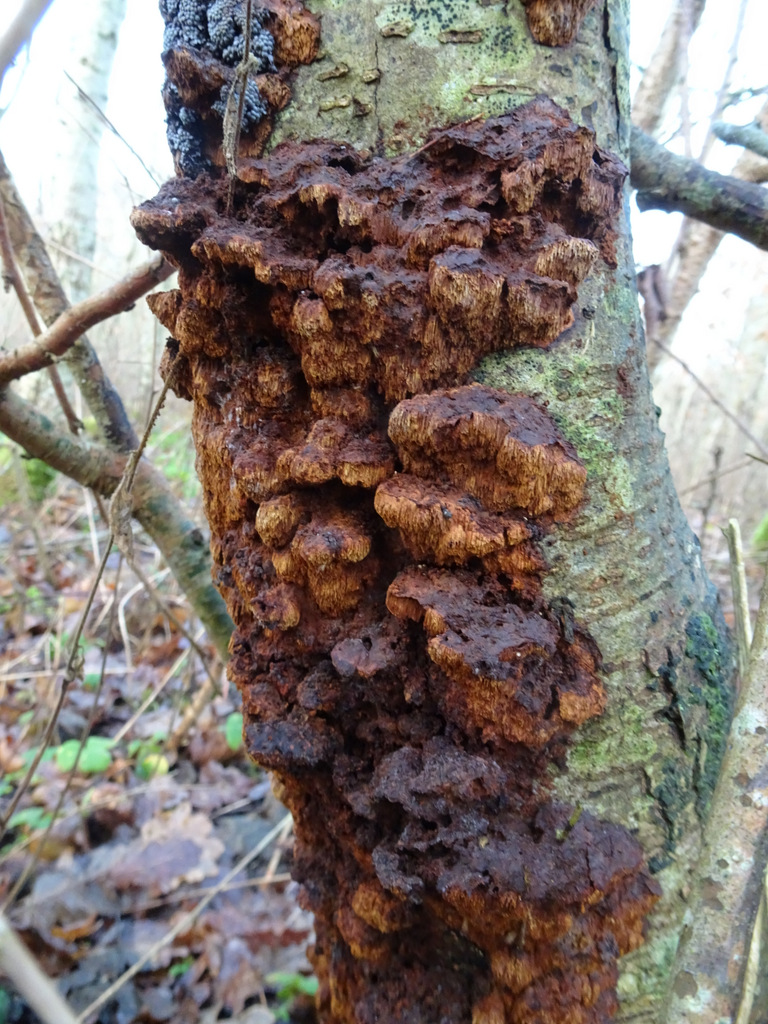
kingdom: Fungi
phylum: Basidiomycota
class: Agaricomycetes
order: Hymenochaetales
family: Hymenochaetaceae
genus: Xanthoporia
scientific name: Xanthoporia radiata
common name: elle-spejlporesvamp
